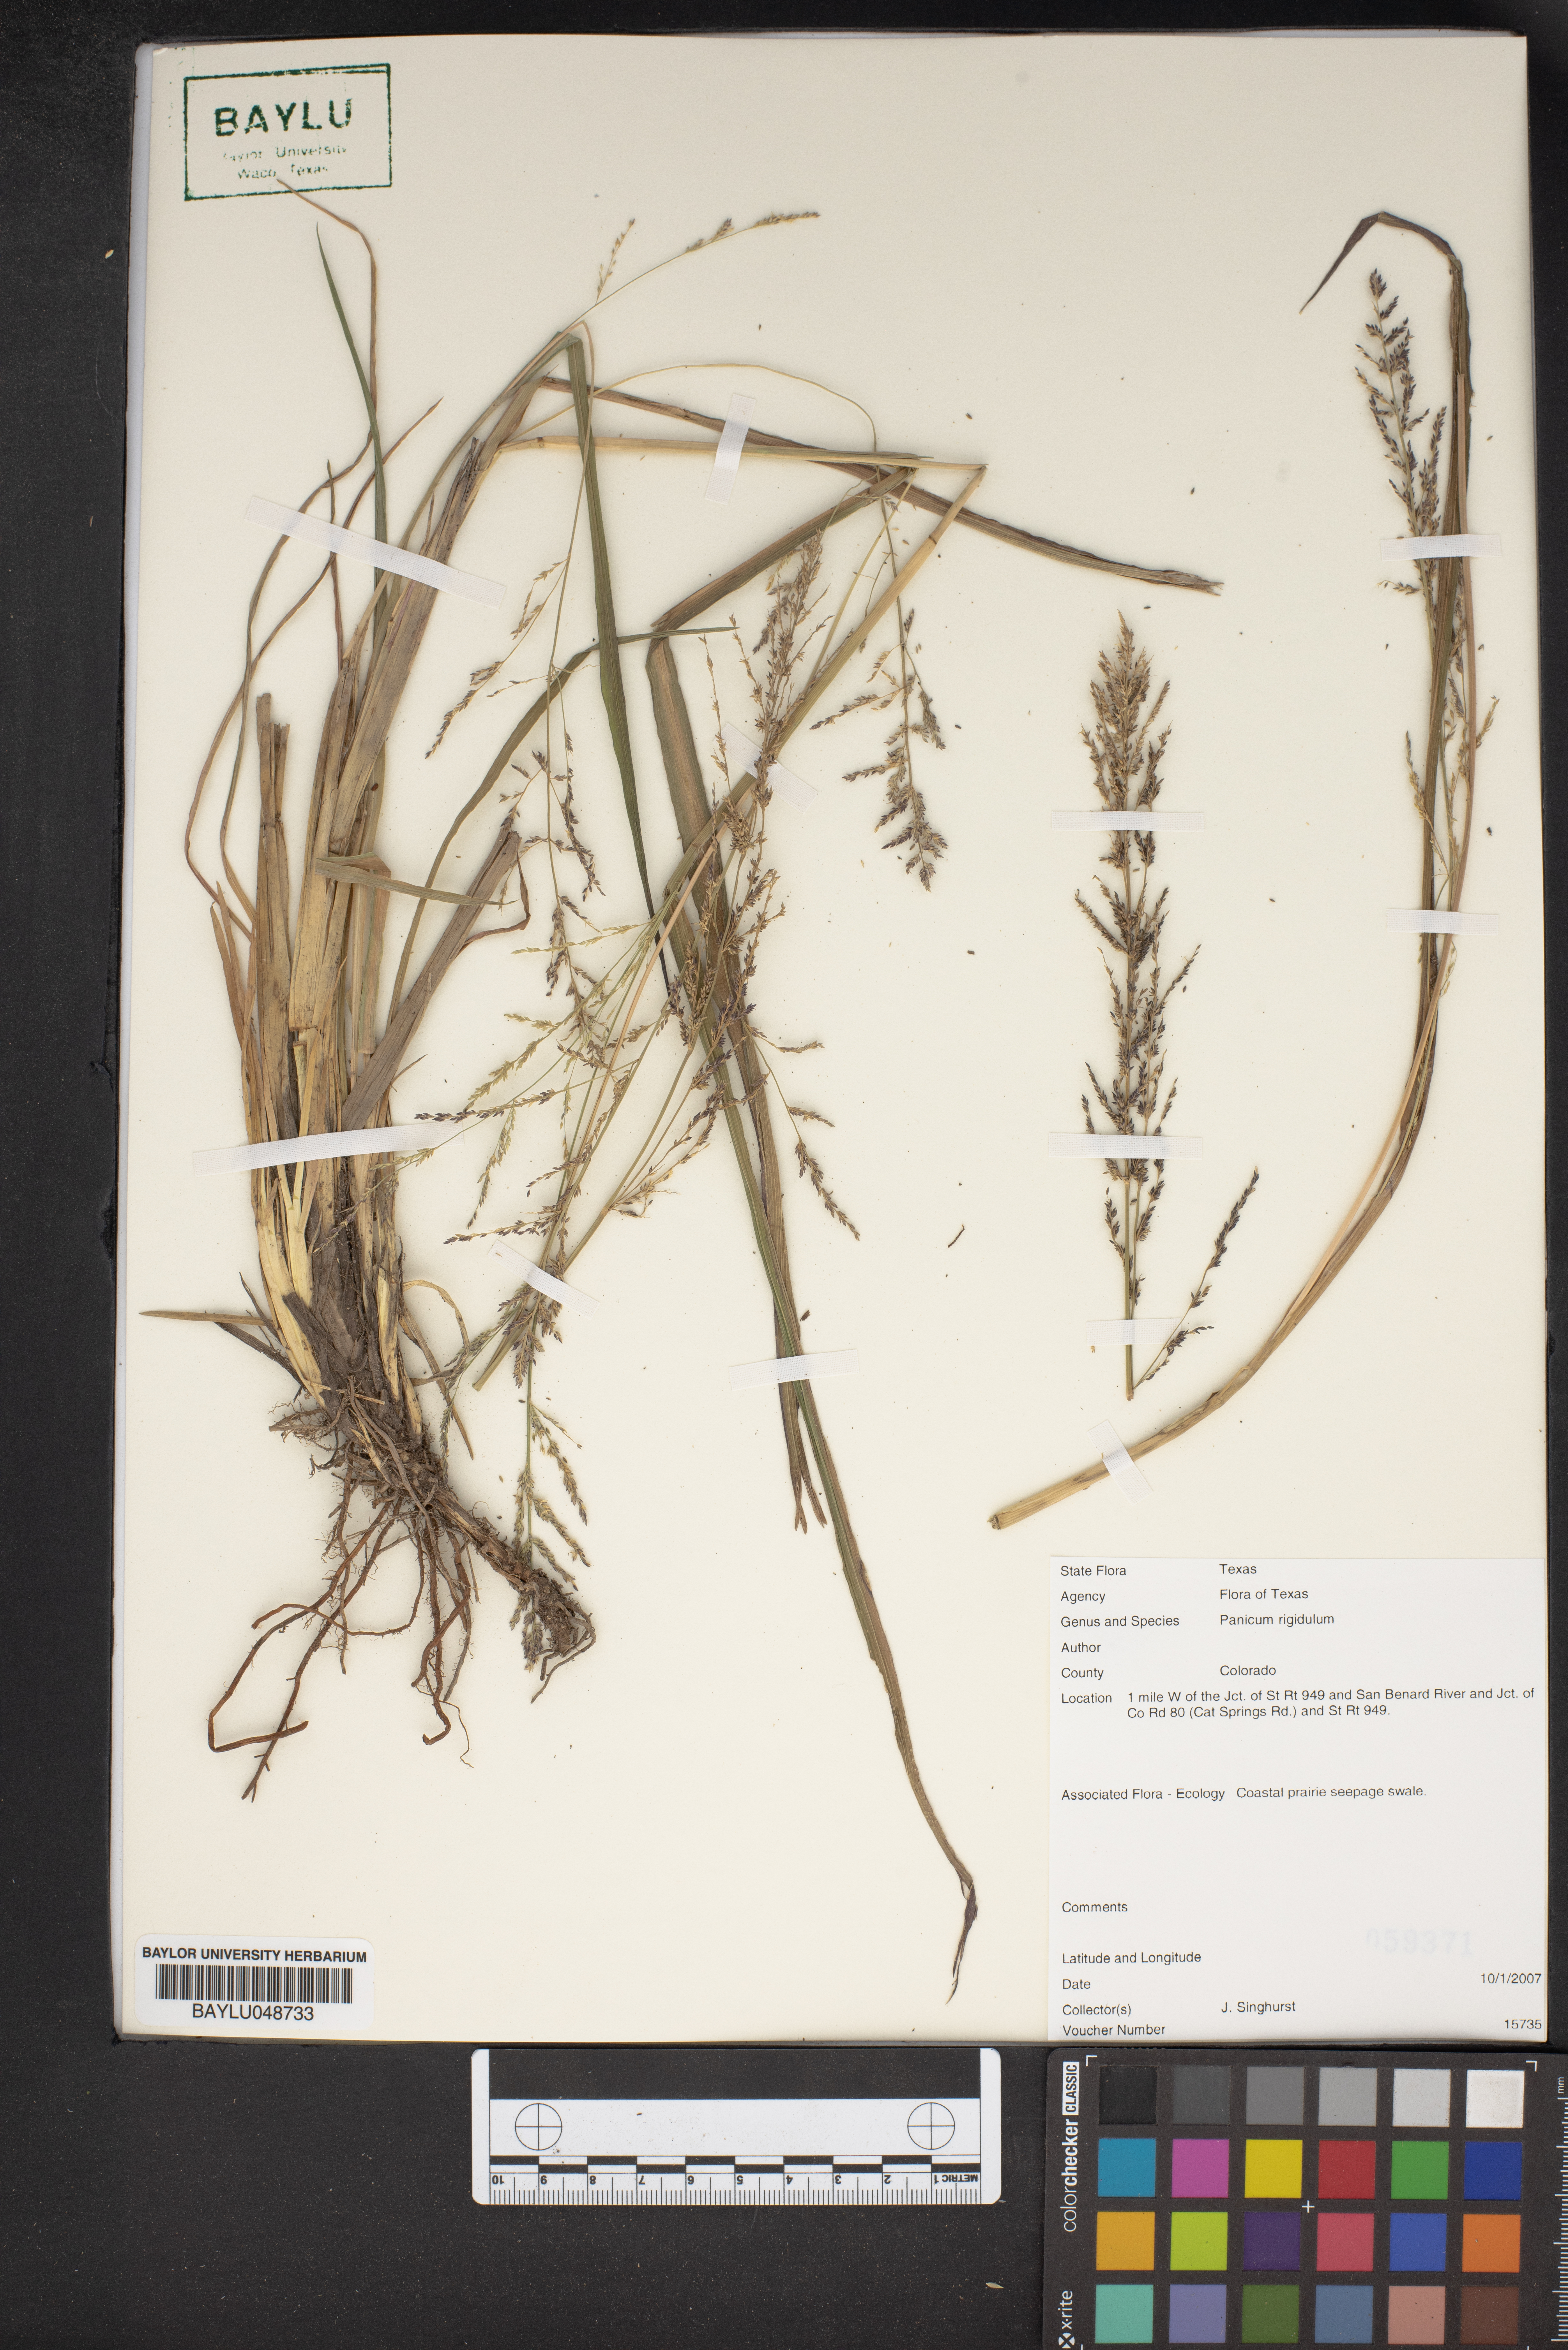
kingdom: Plantae
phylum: Tracheophyta
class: Liliopsida
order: Poales
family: Poaceae
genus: Coleataenia
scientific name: Coleataenia rigidula
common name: Redtop panicgrass
